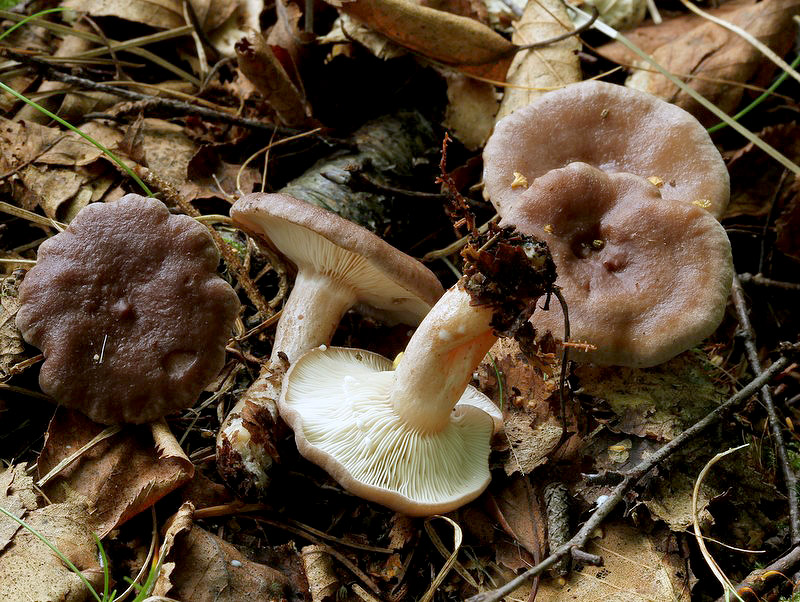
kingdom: Fungi
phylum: Basidiomycota
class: Agaricomycetes
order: Russulales
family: Russulaceae
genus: Lactarius
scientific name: Lactarius vietus
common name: violetgrå mælkehat
